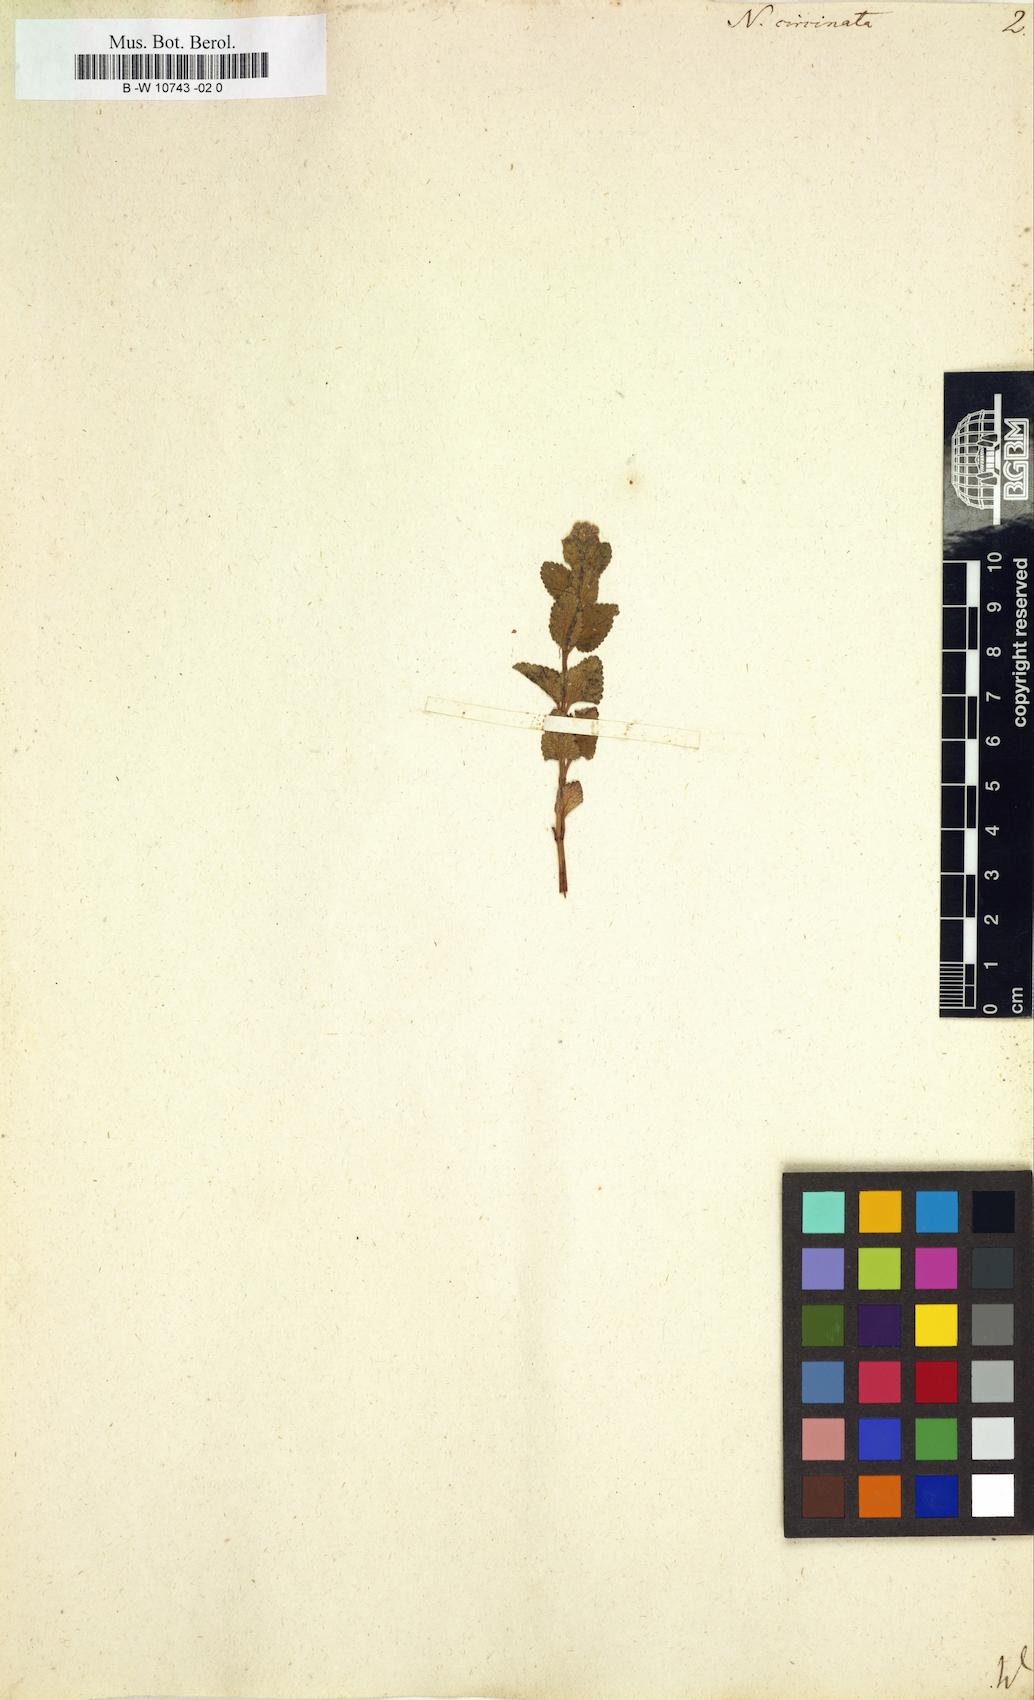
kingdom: Plantae
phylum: Tracheophyta
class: Magnoliopsida
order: Lamiales
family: Lamiaceae
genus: Stachys
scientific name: Stachys nepetifolia
